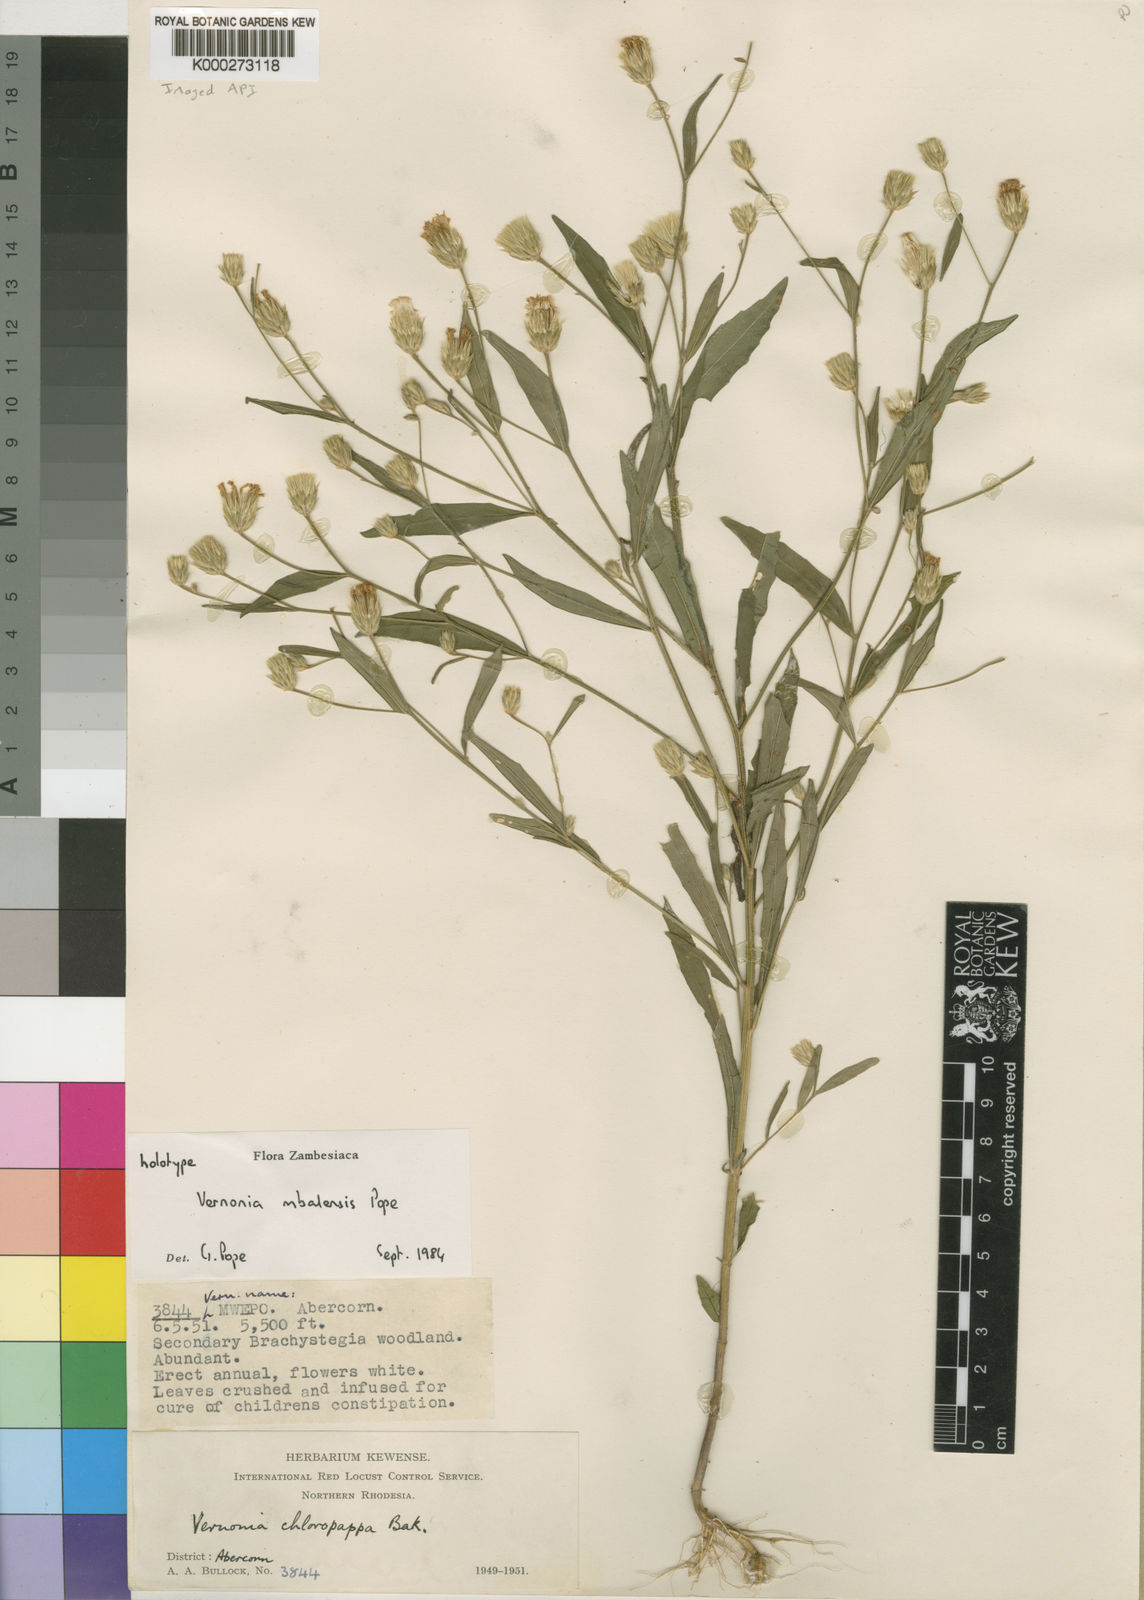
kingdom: Plantae
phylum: Tracheophyta
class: Magnoliopsida
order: Asterales
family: Asteraceae
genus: Crystallopollen
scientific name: Crystallopollen mbalense
